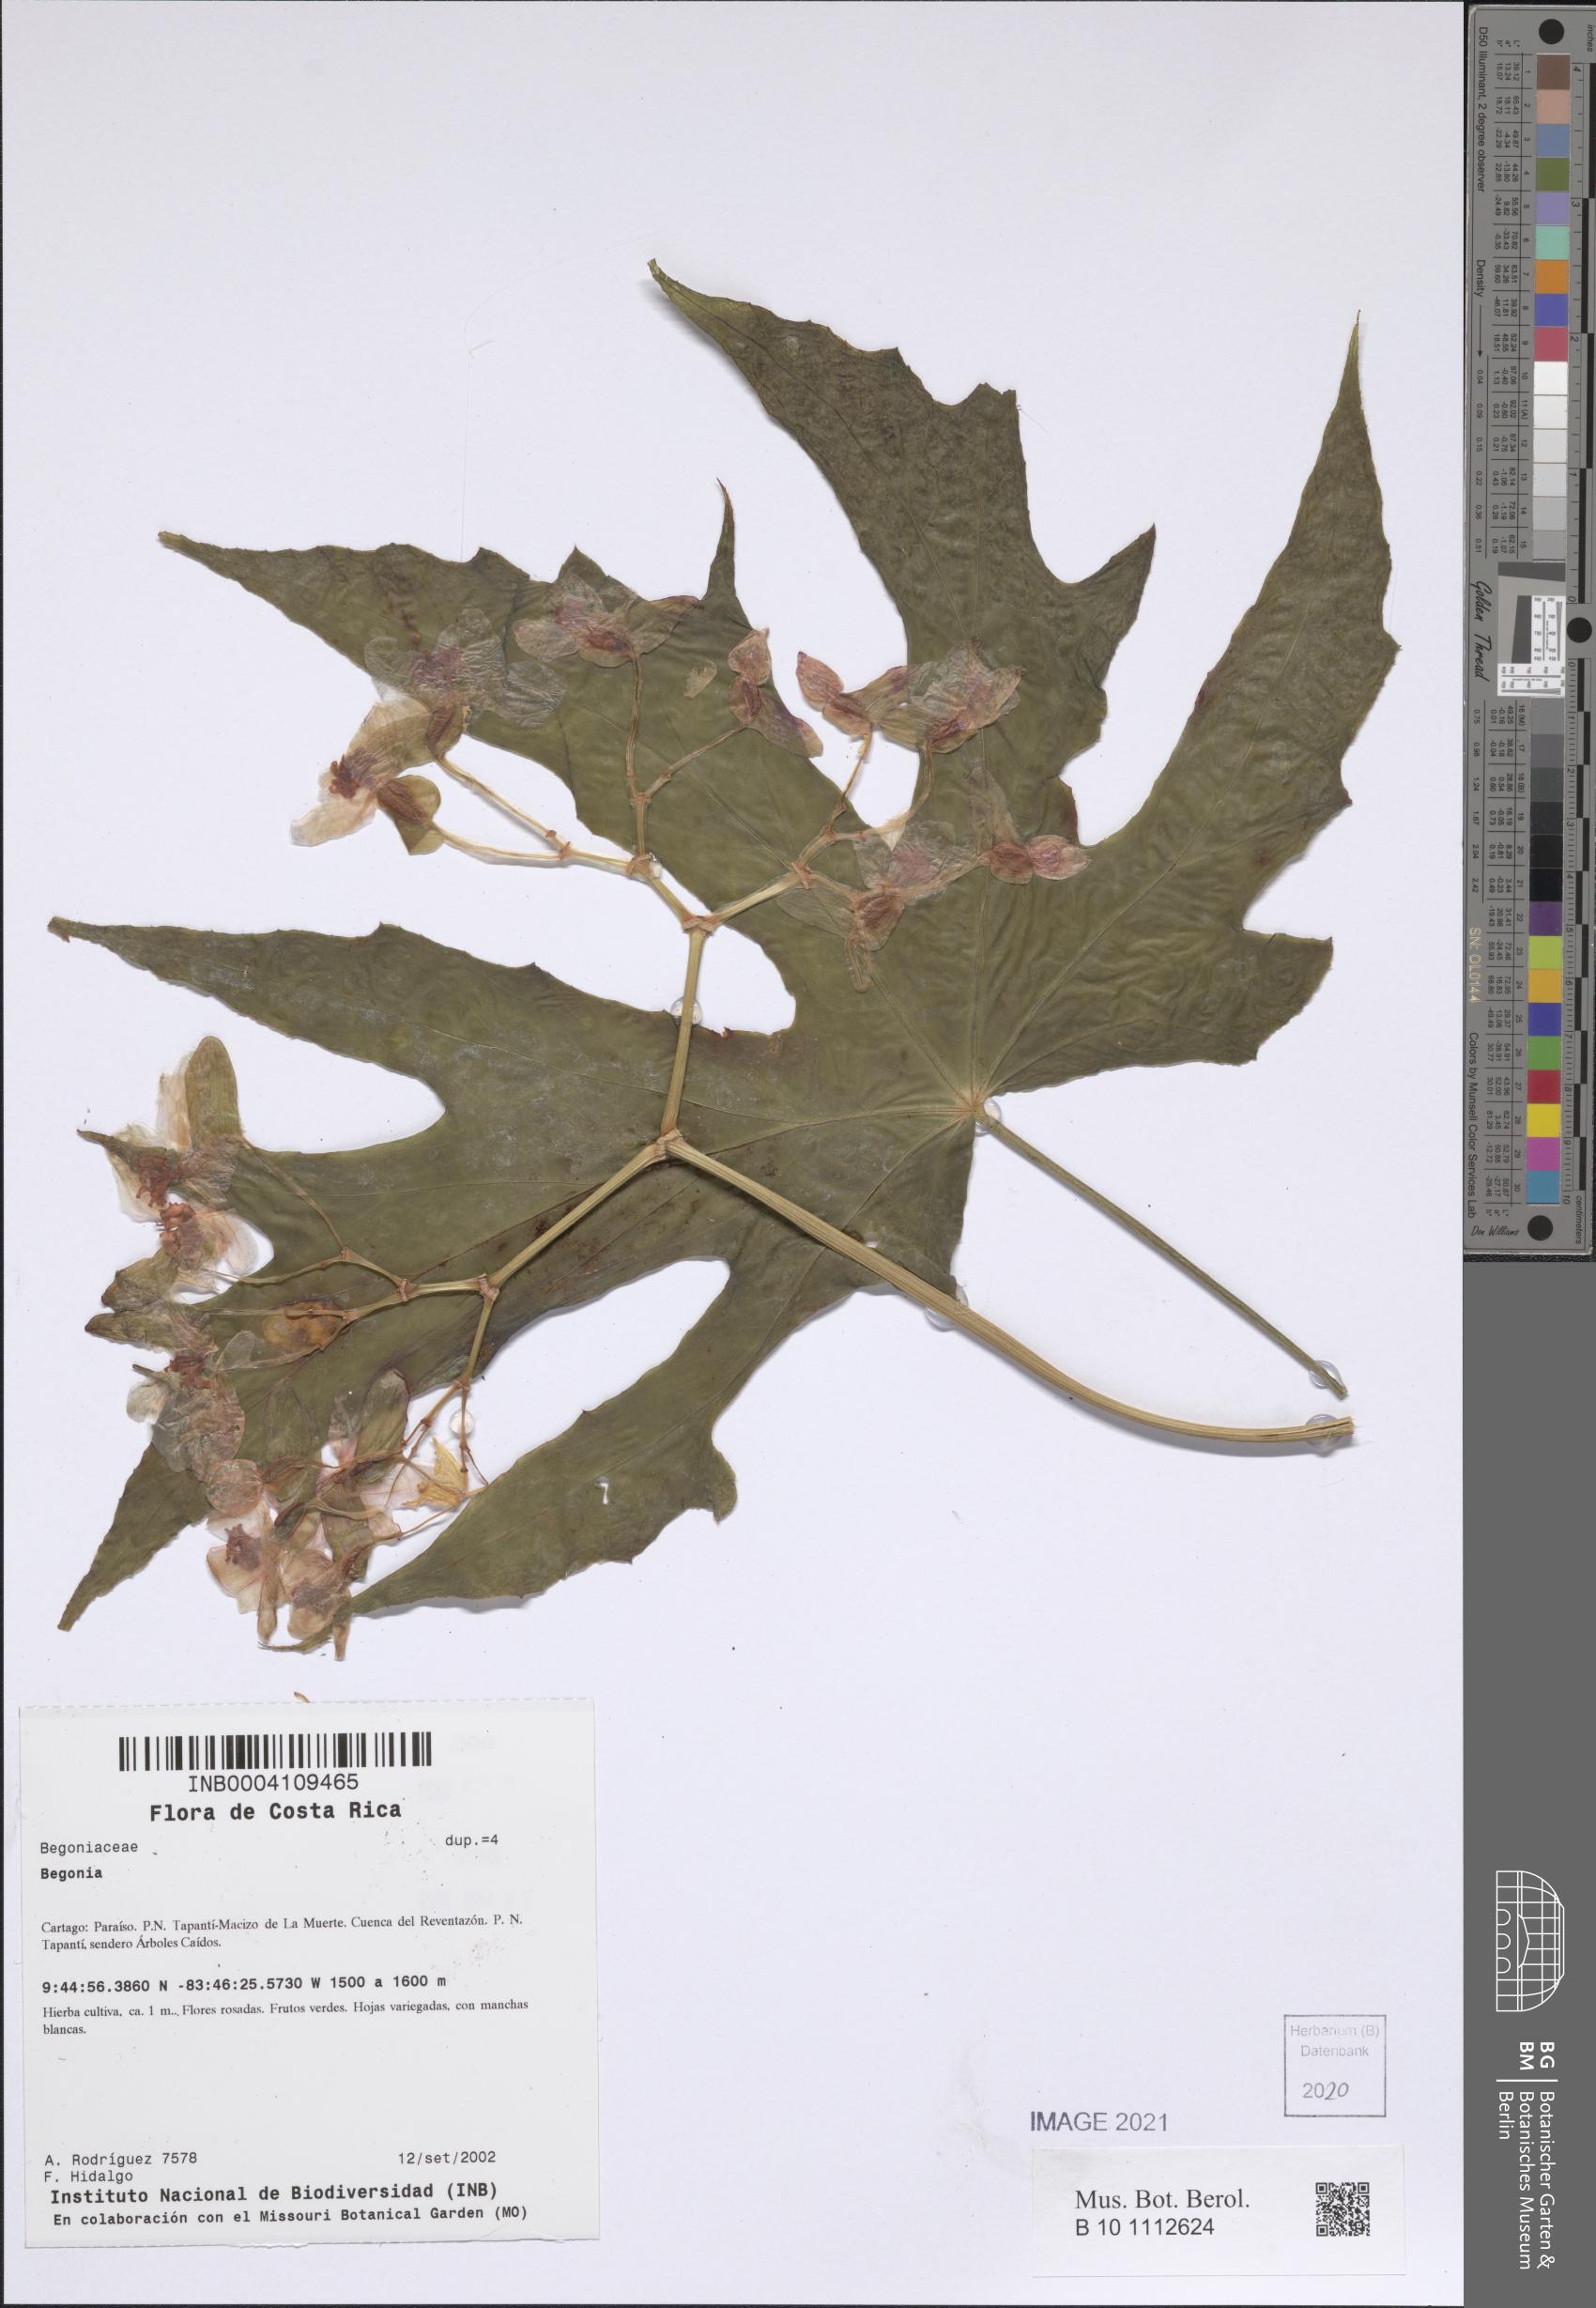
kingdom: Plantae
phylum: Tracheophyta
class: Magnoliopsida
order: Cucurbitales
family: Begoniaceae
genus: Begonia
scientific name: Begonia
